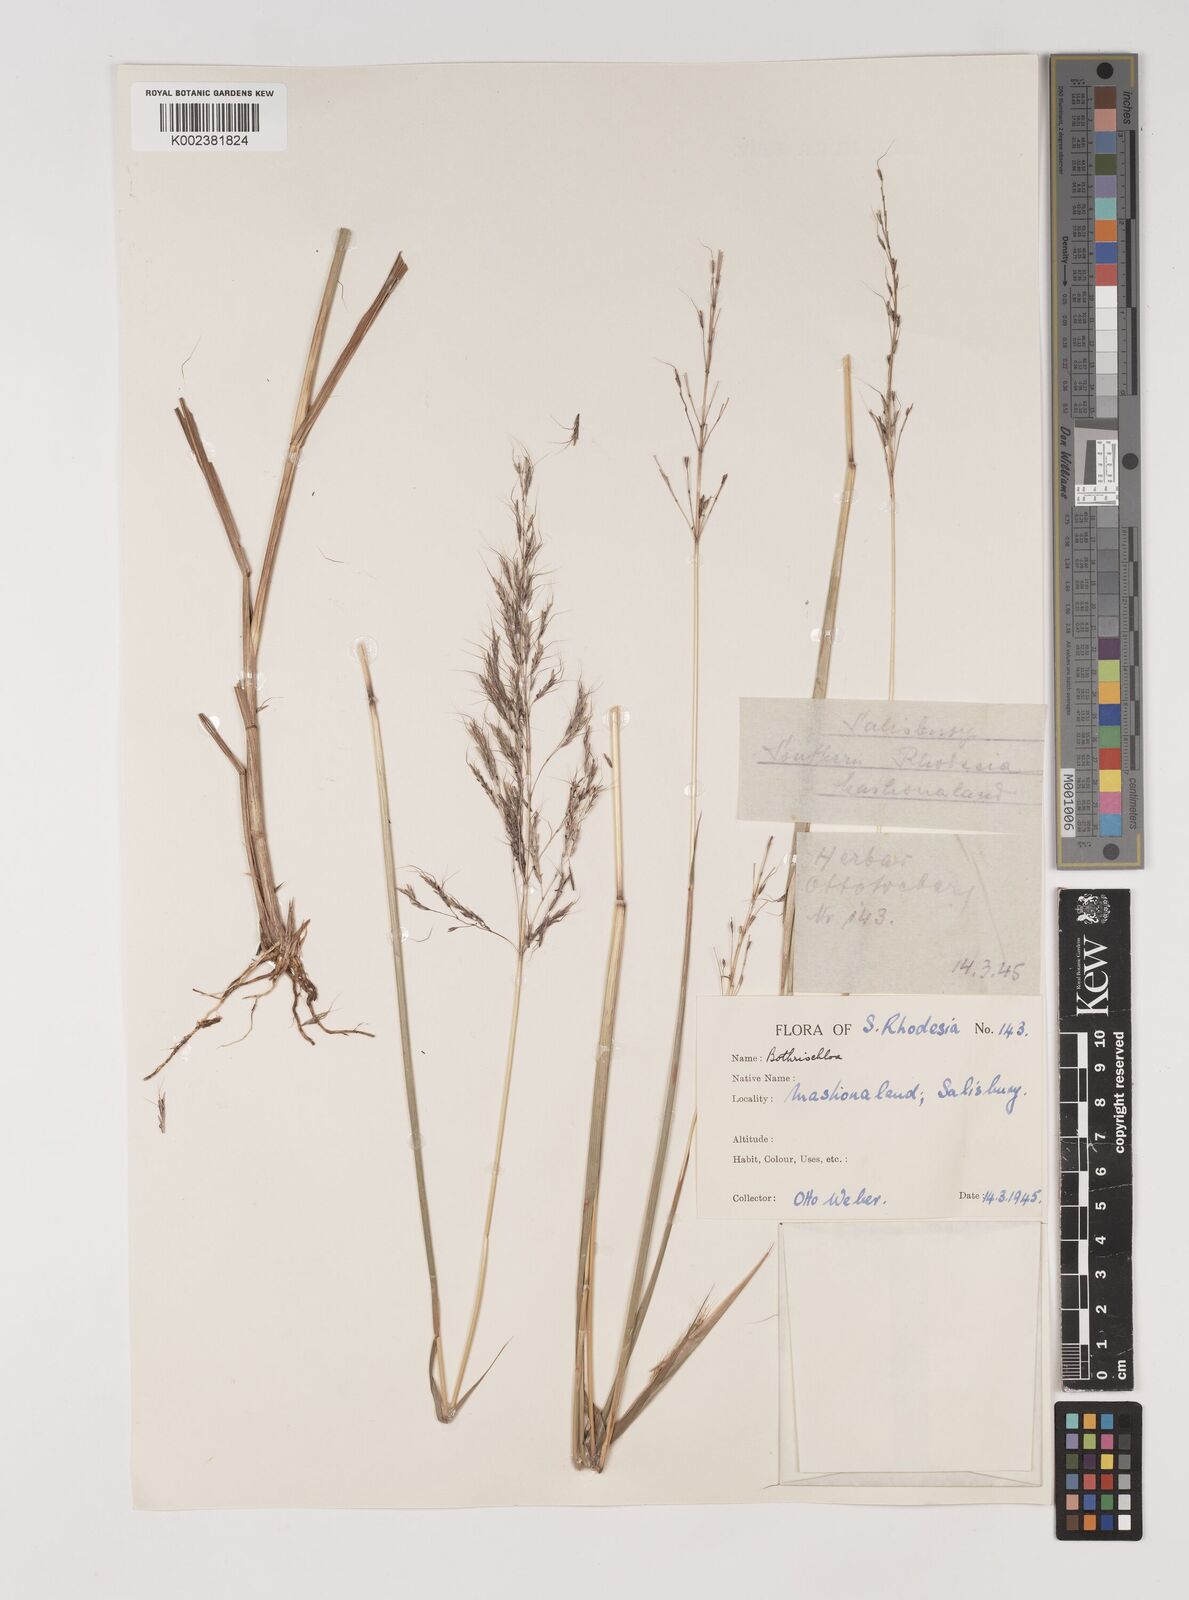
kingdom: Plantae
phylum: Tracheophyta
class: Liliopsida
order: Poales
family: Poaceae
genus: Bothriochloa
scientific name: Bothriochloa bladhii
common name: Caucasian bluestem
